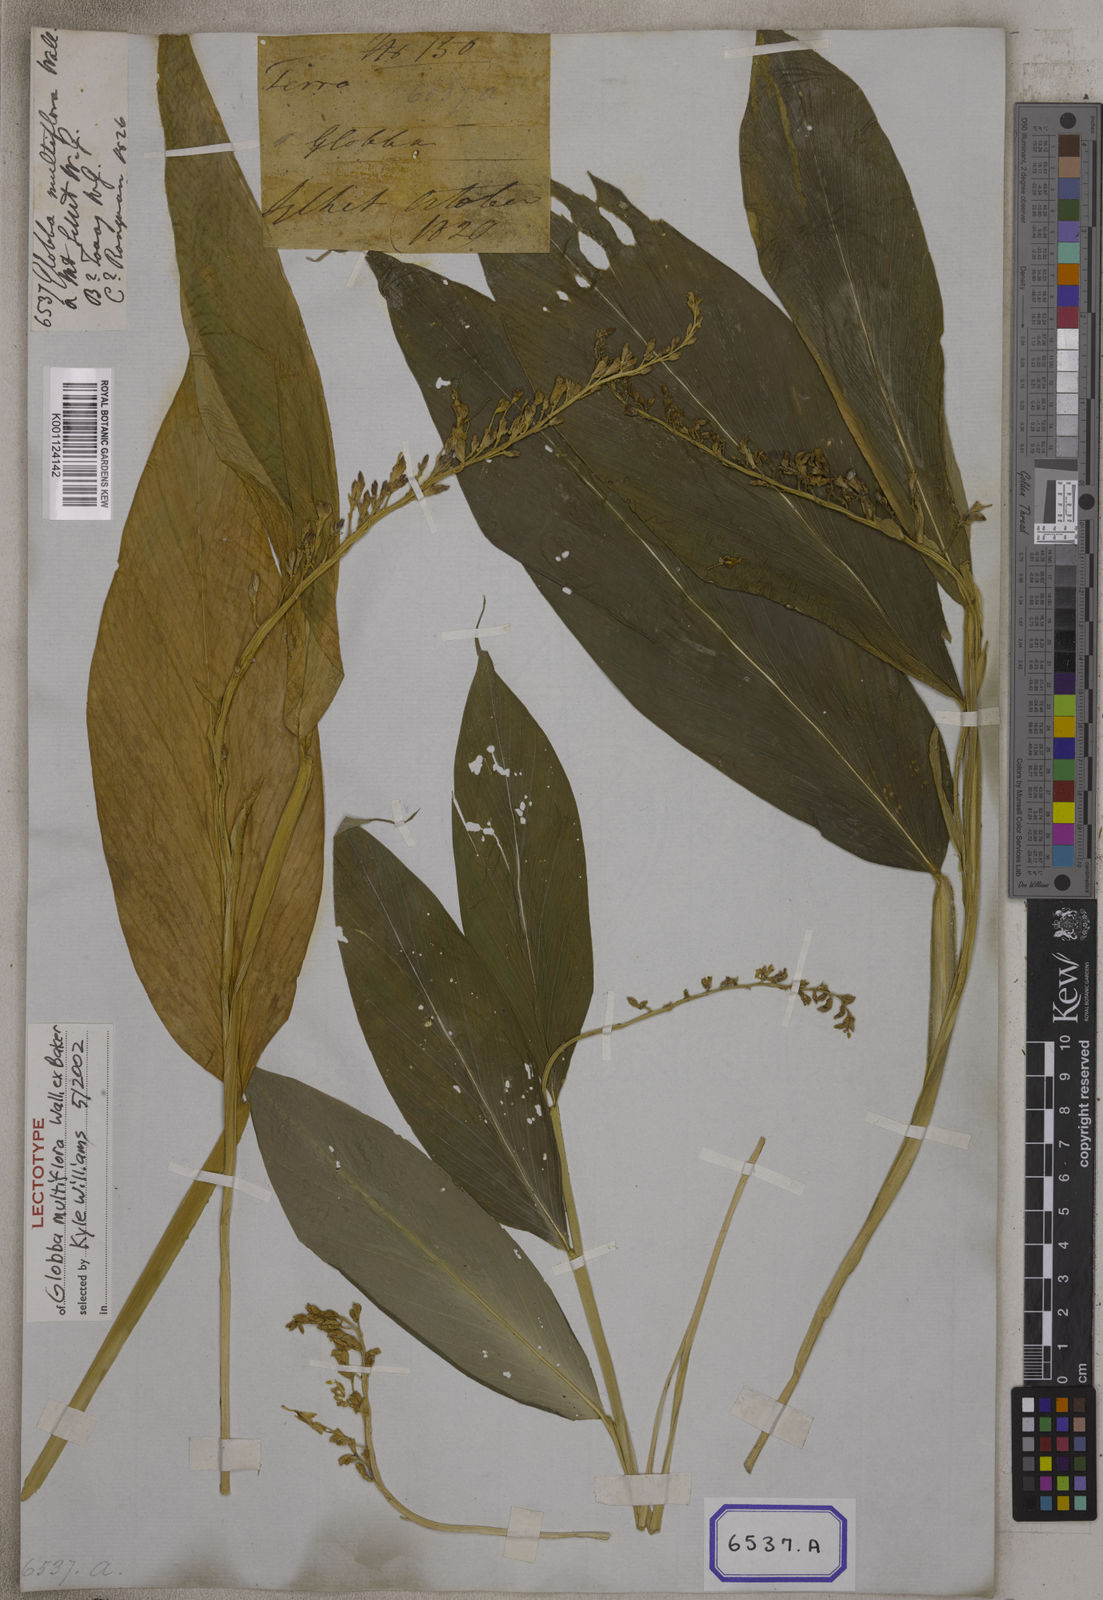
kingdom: Plantae
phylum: Tracheophyta
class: Liliopsida
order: Zingiberales
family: Zingiberaceae
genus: Globba
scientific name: Globba
